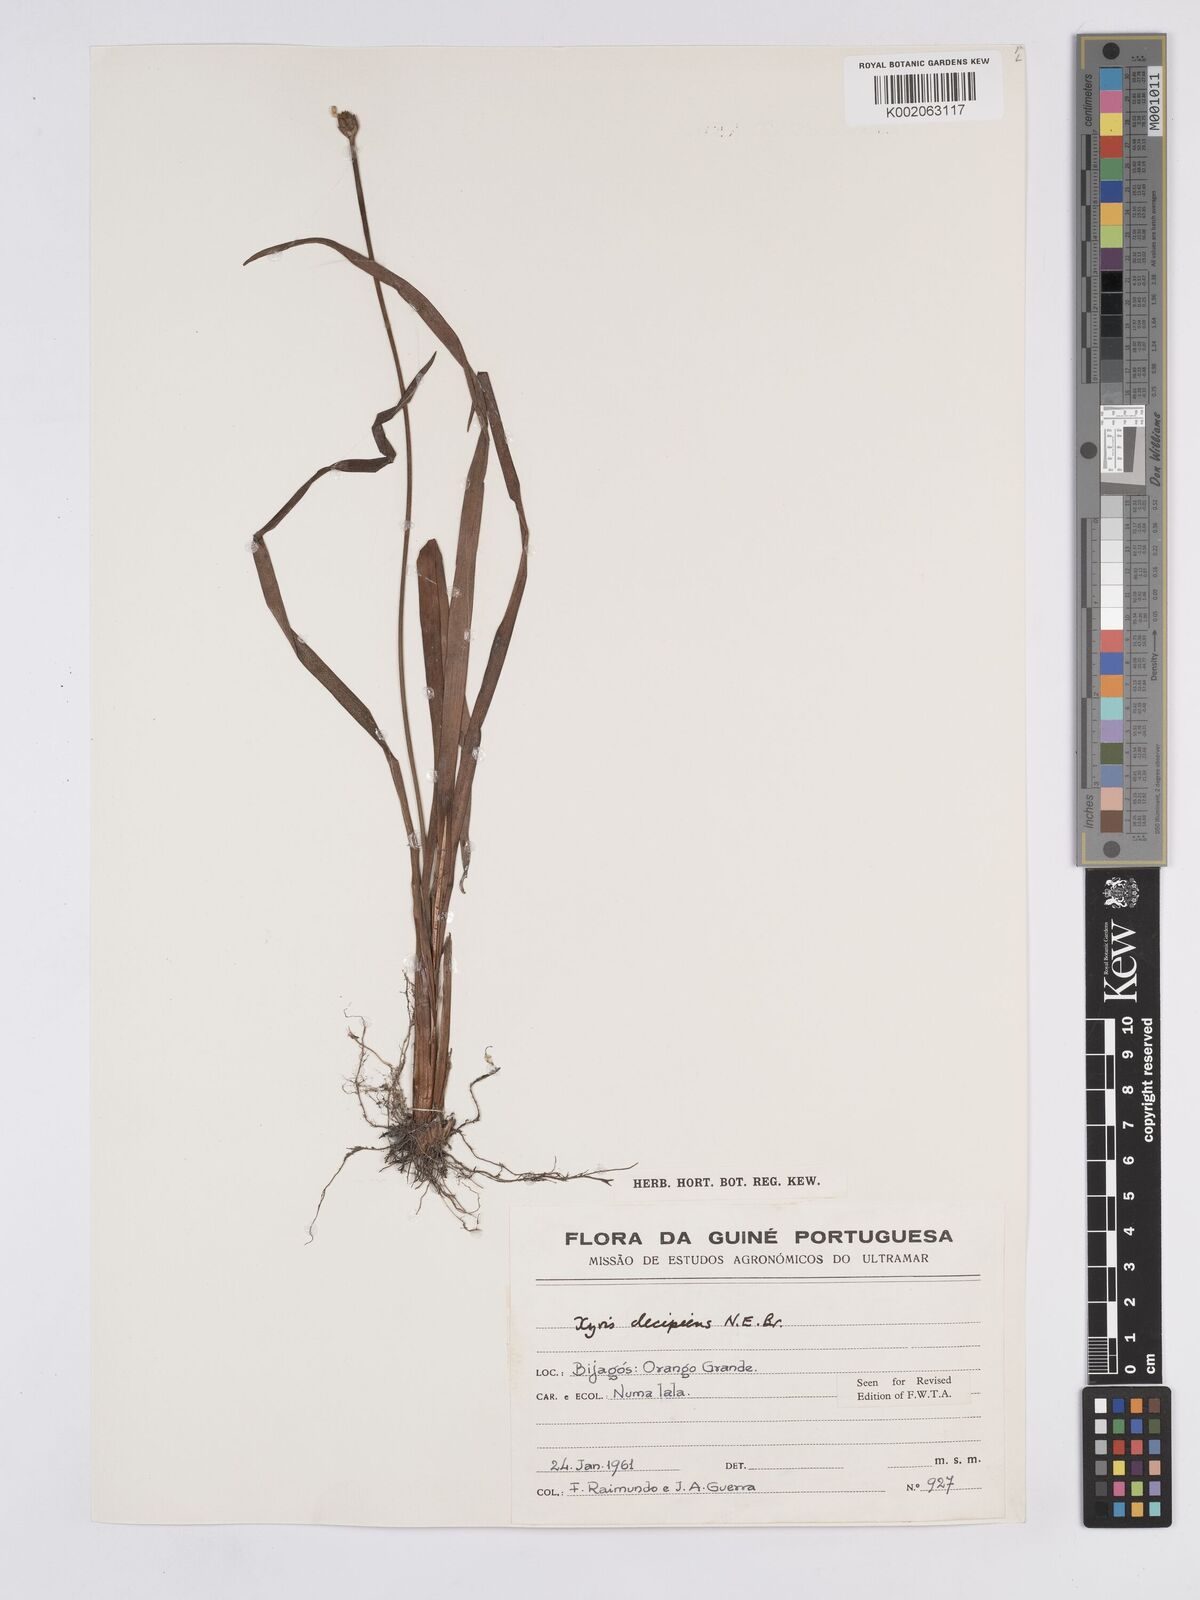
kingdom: Plantae
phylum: Tracheophyta
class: Liliopsida
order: Poales
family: Xyridaceae
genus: Xyris
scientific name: Xyris decipiens
